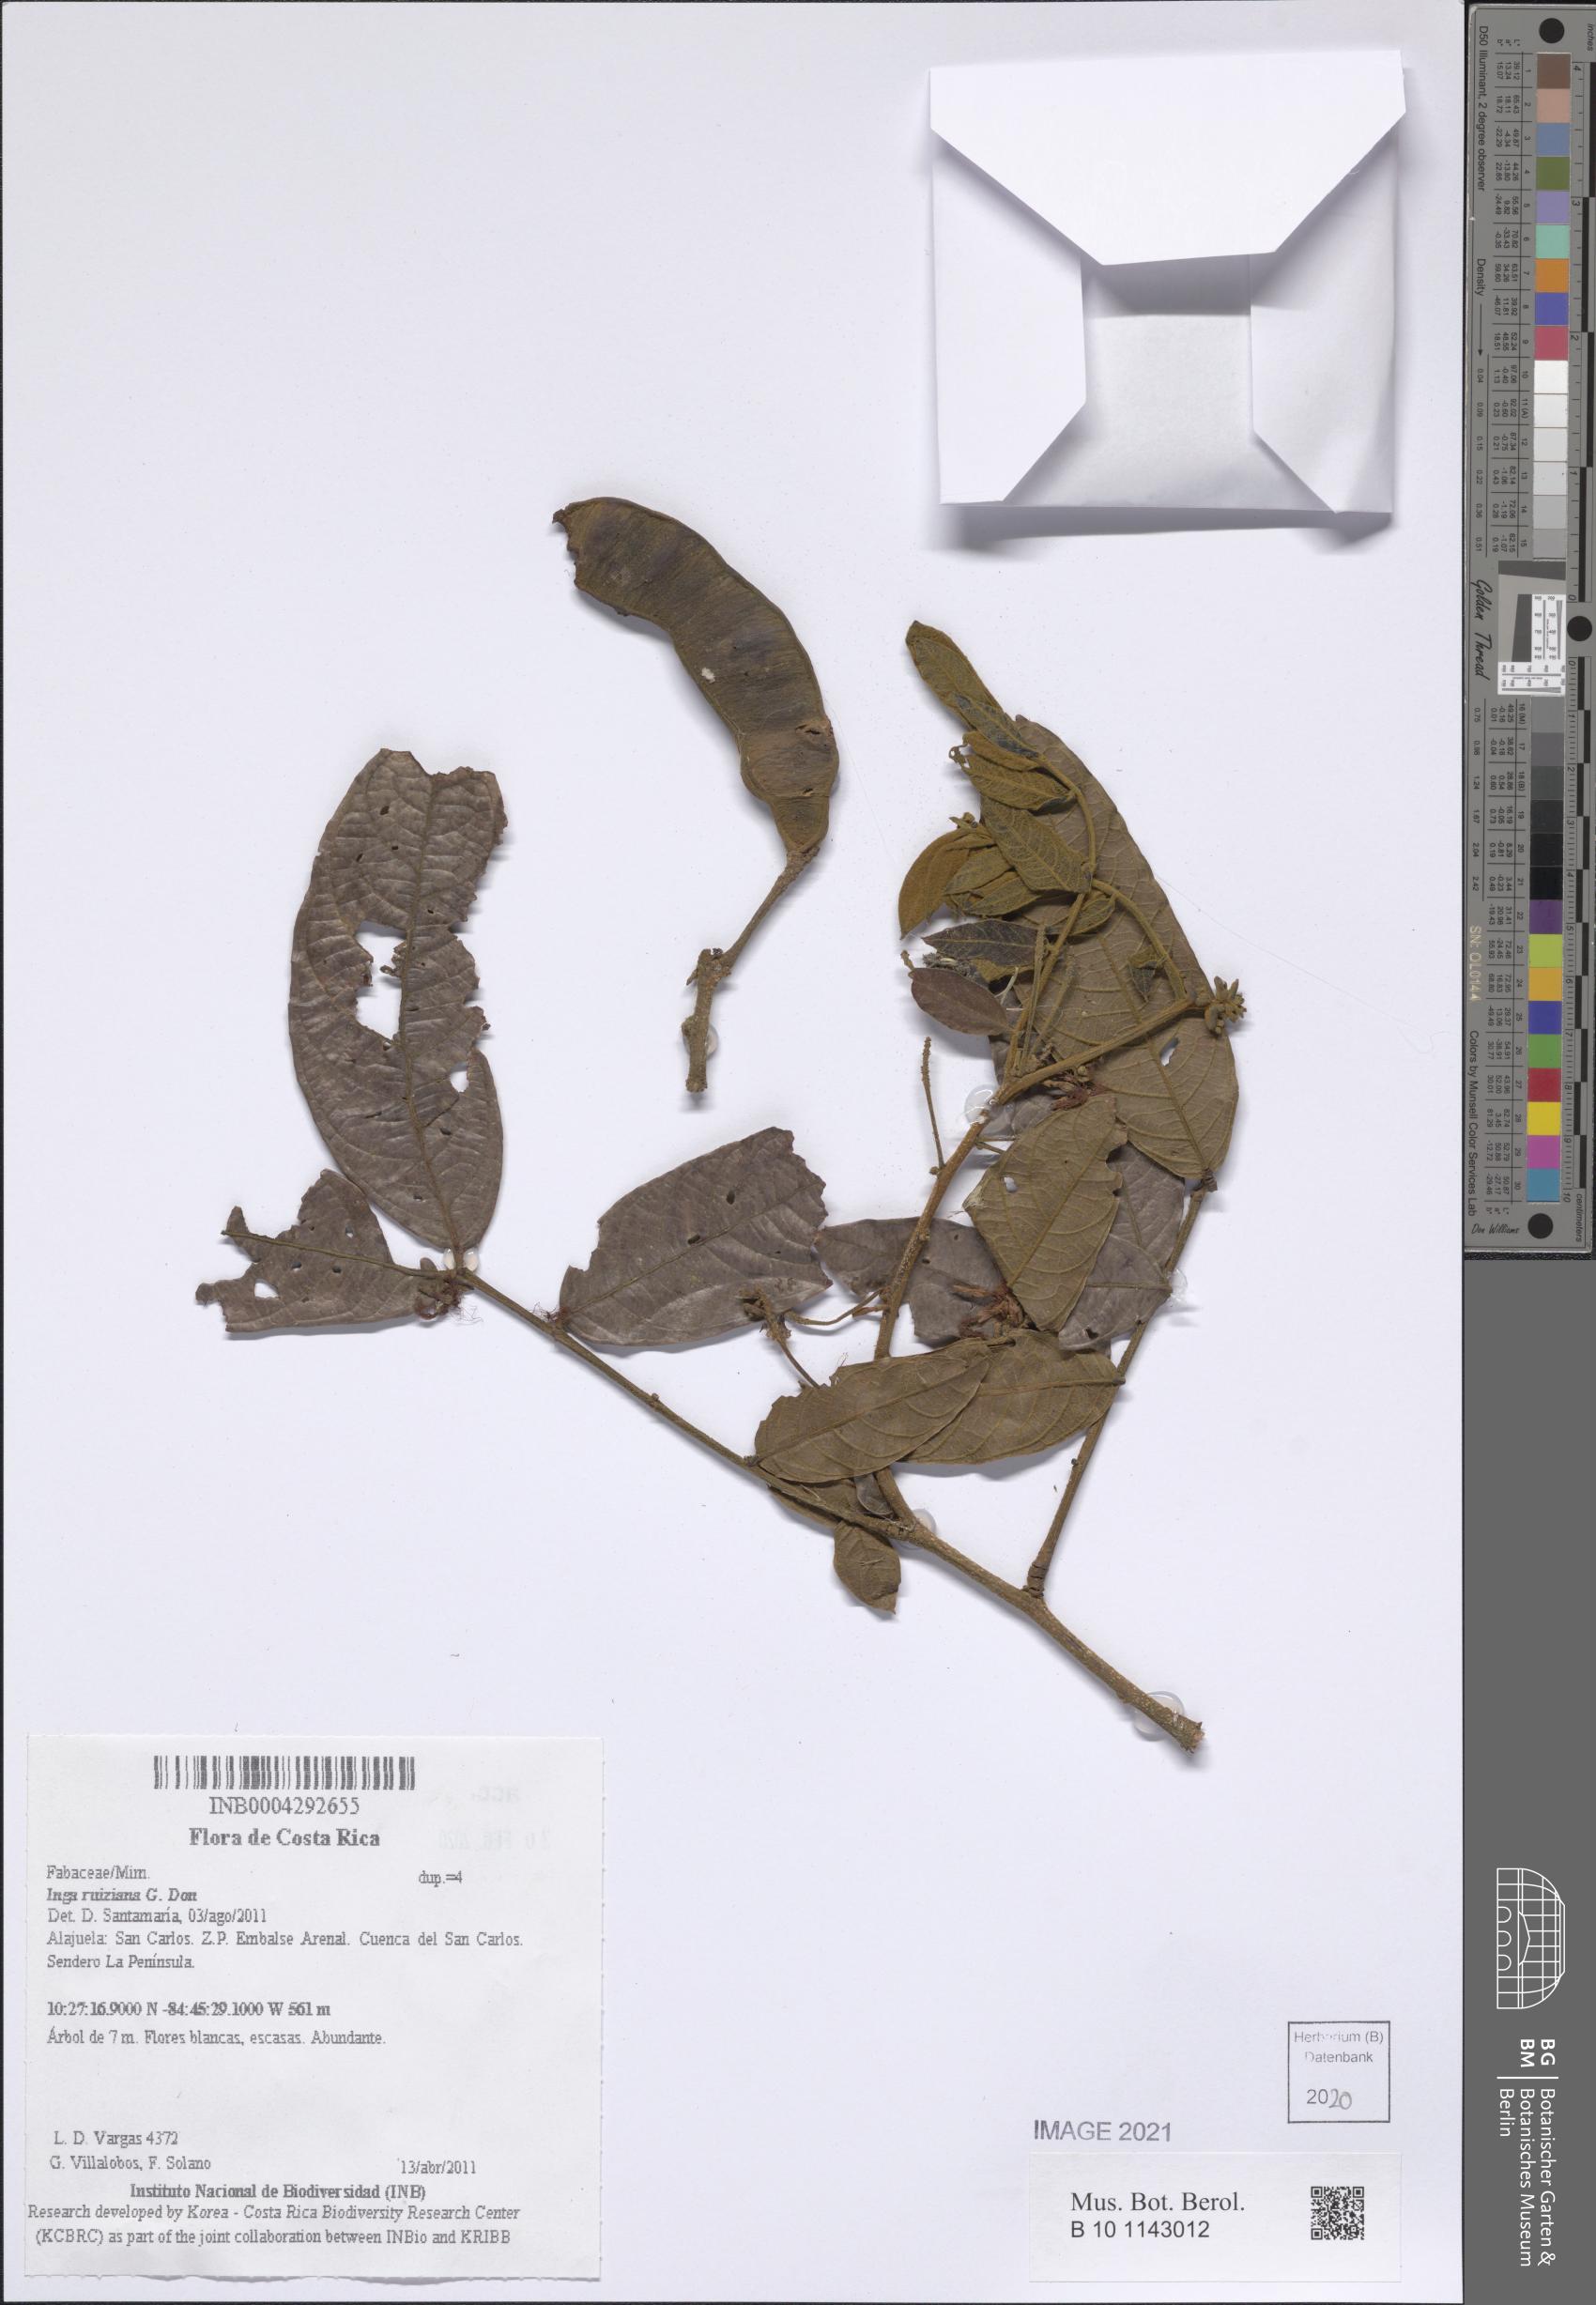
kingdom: Plantae
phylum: Tracheophyta
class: Magnoliopsida
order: Fabales
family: Fabaceae
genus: Inga
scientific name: Inga ruiziana
